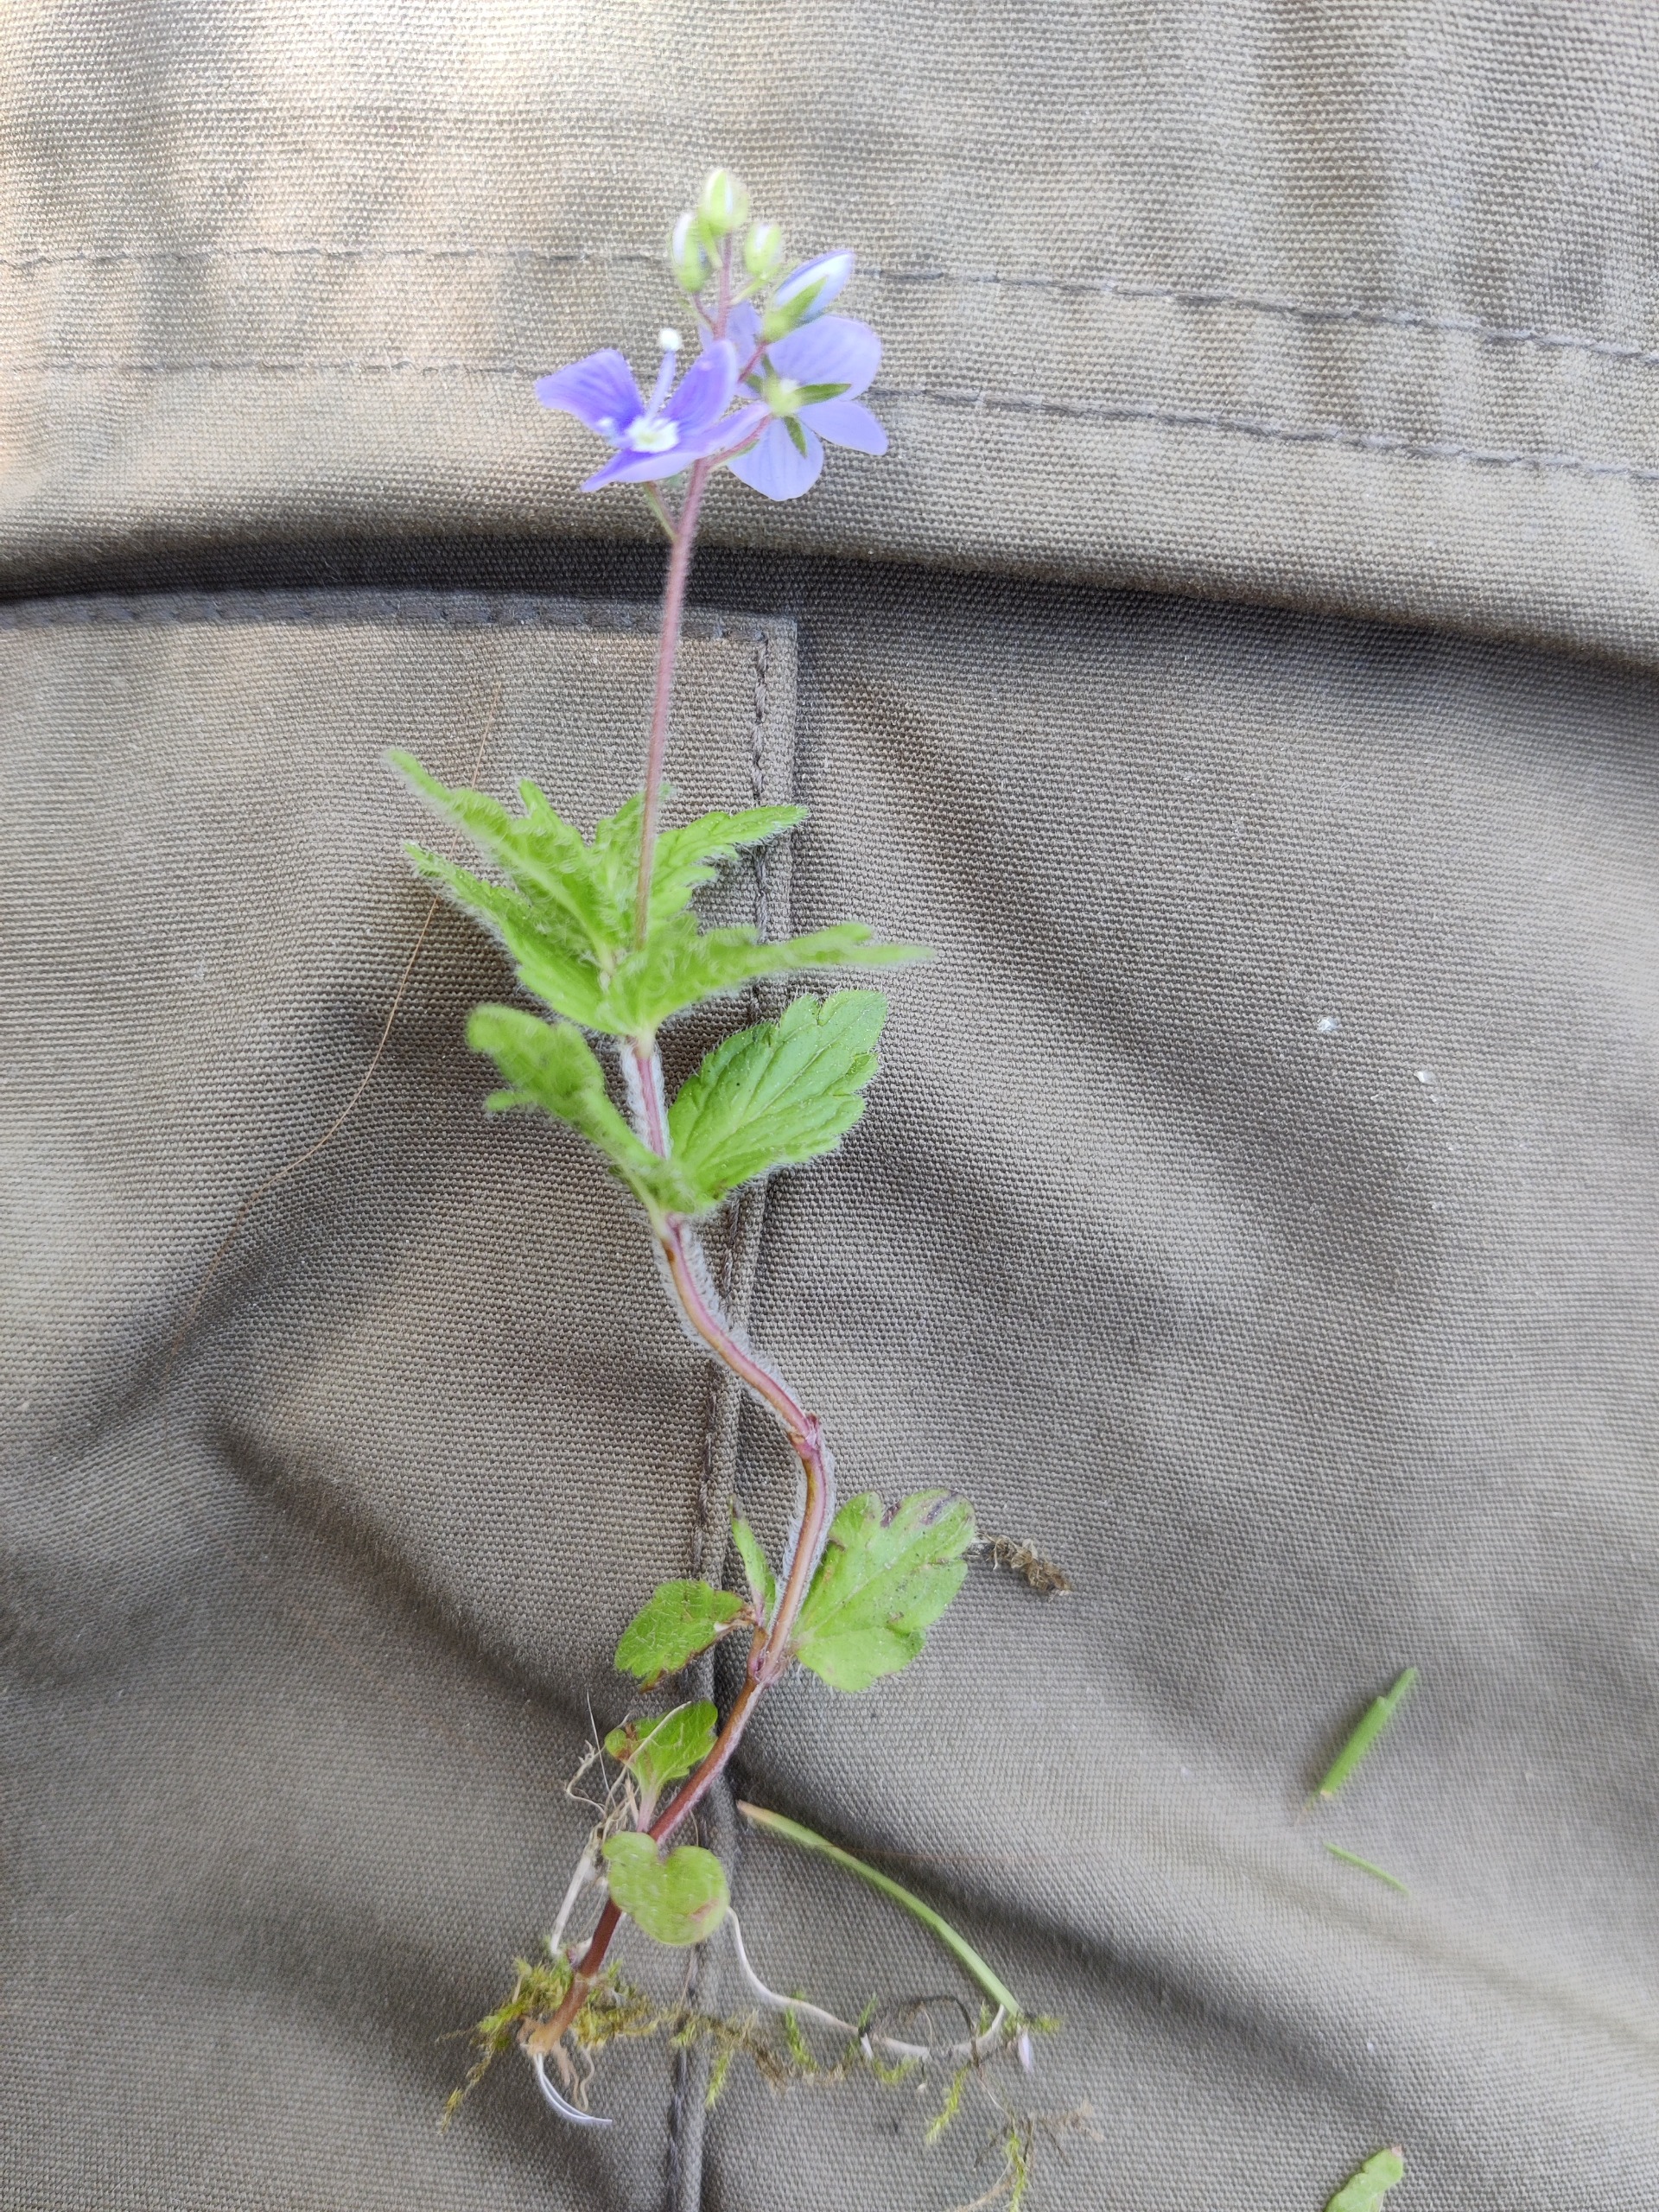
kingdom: Plantae
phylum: Tracheophyta
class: Magnoliopsida
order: Lamiales
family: Plantaginaceae
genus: Veronica
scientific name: Veronica chamaedrys
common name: Tveskægget ærenpris
